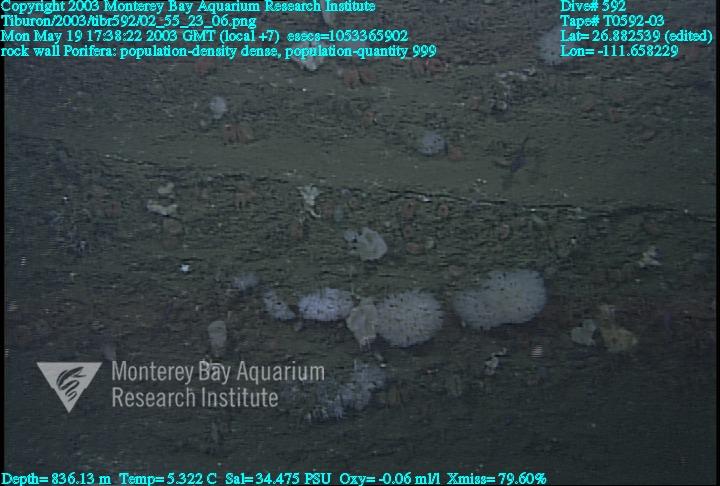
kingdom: Animalia
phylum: Porifera
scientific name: Porifera
